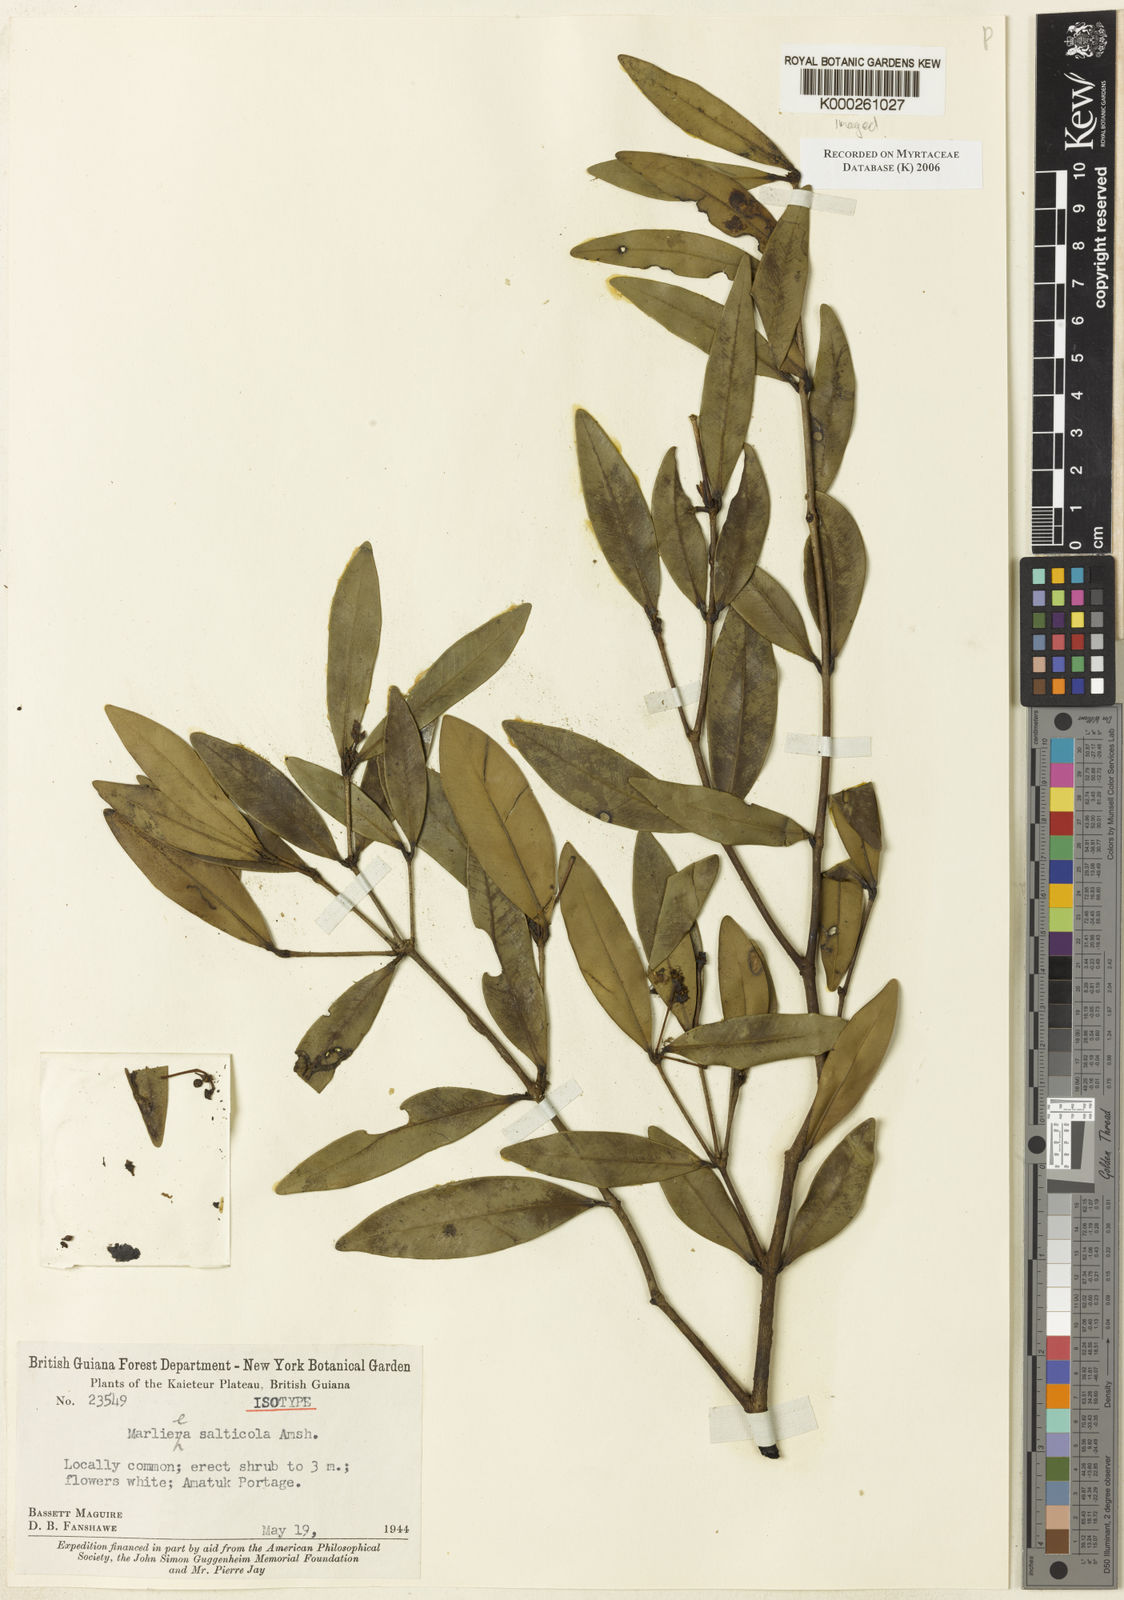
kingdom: Plantae
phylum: Tracheophyta
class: Magnoliopsida
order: Myrtales
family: Myrtaceae
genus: Myrcia
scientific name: Myrcia chonodisca
